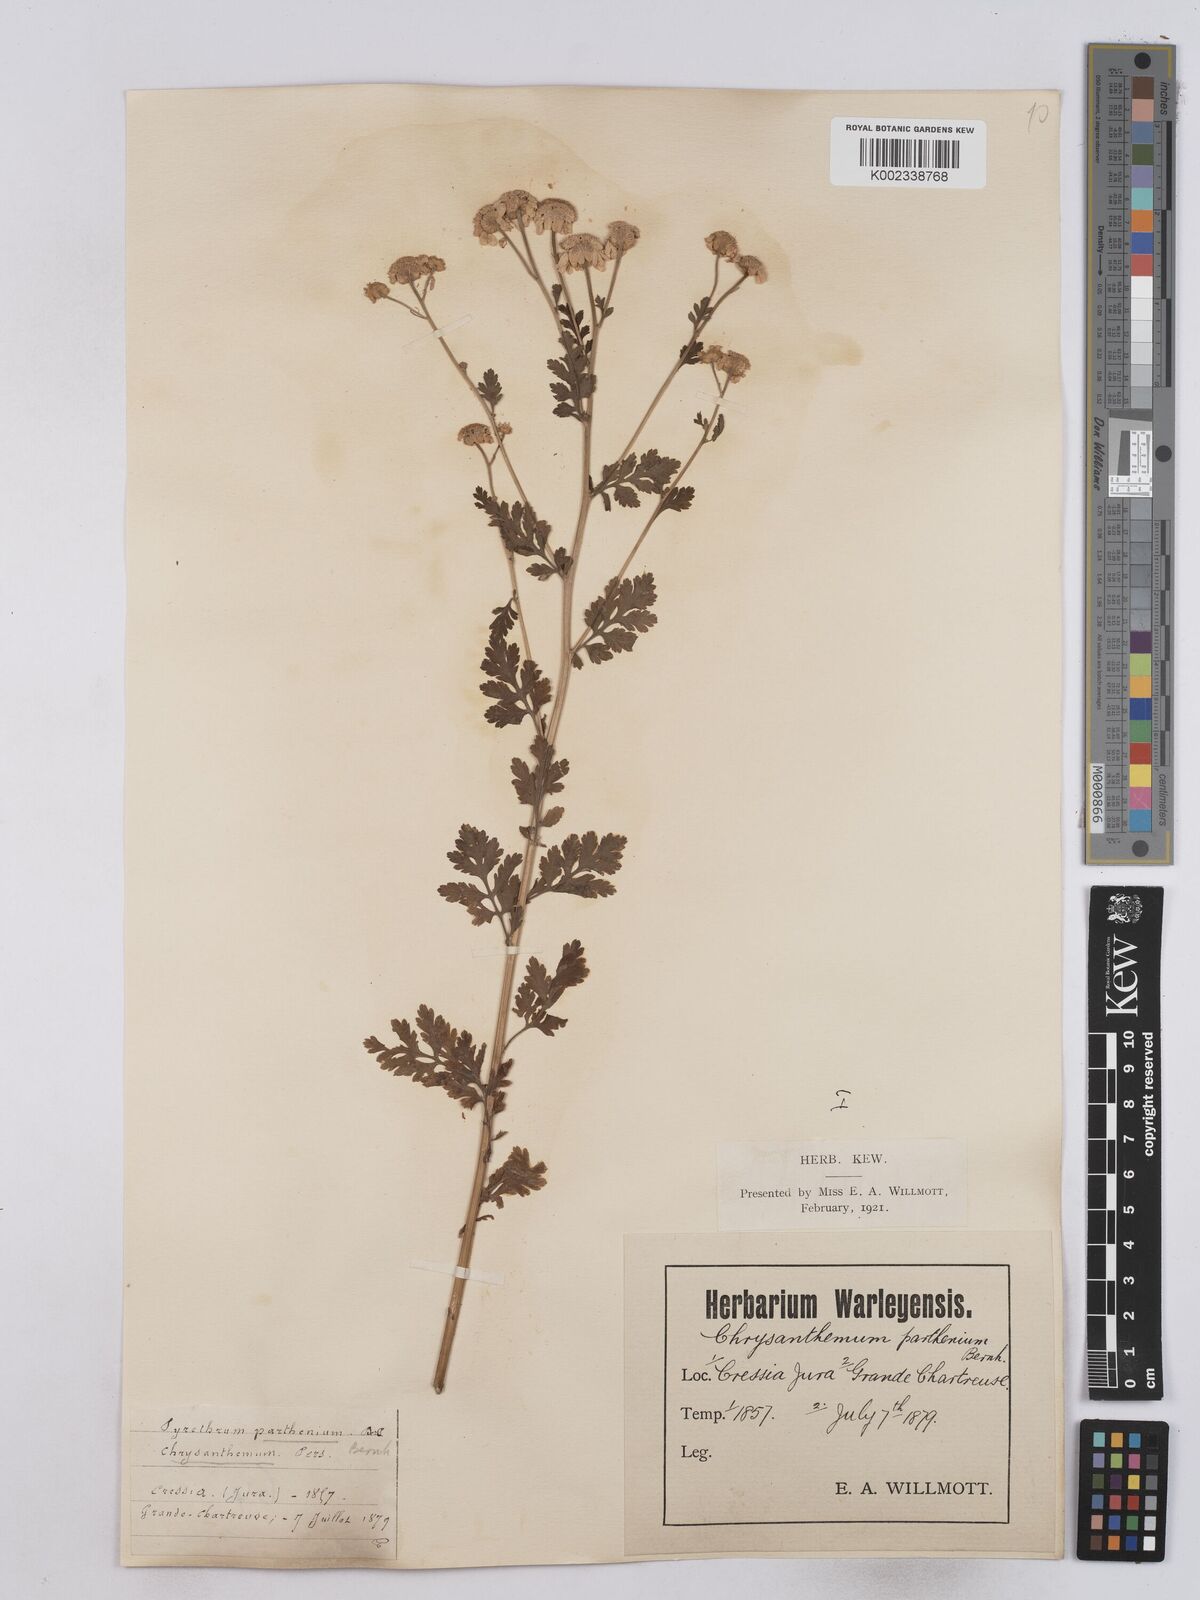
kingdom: Plantae
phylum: Tracheophyta
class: Magnoliopsida
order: Asterales
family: Asteraceae
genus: Tanacetum
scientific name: Tanacetum parthenium
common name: Feverfew
